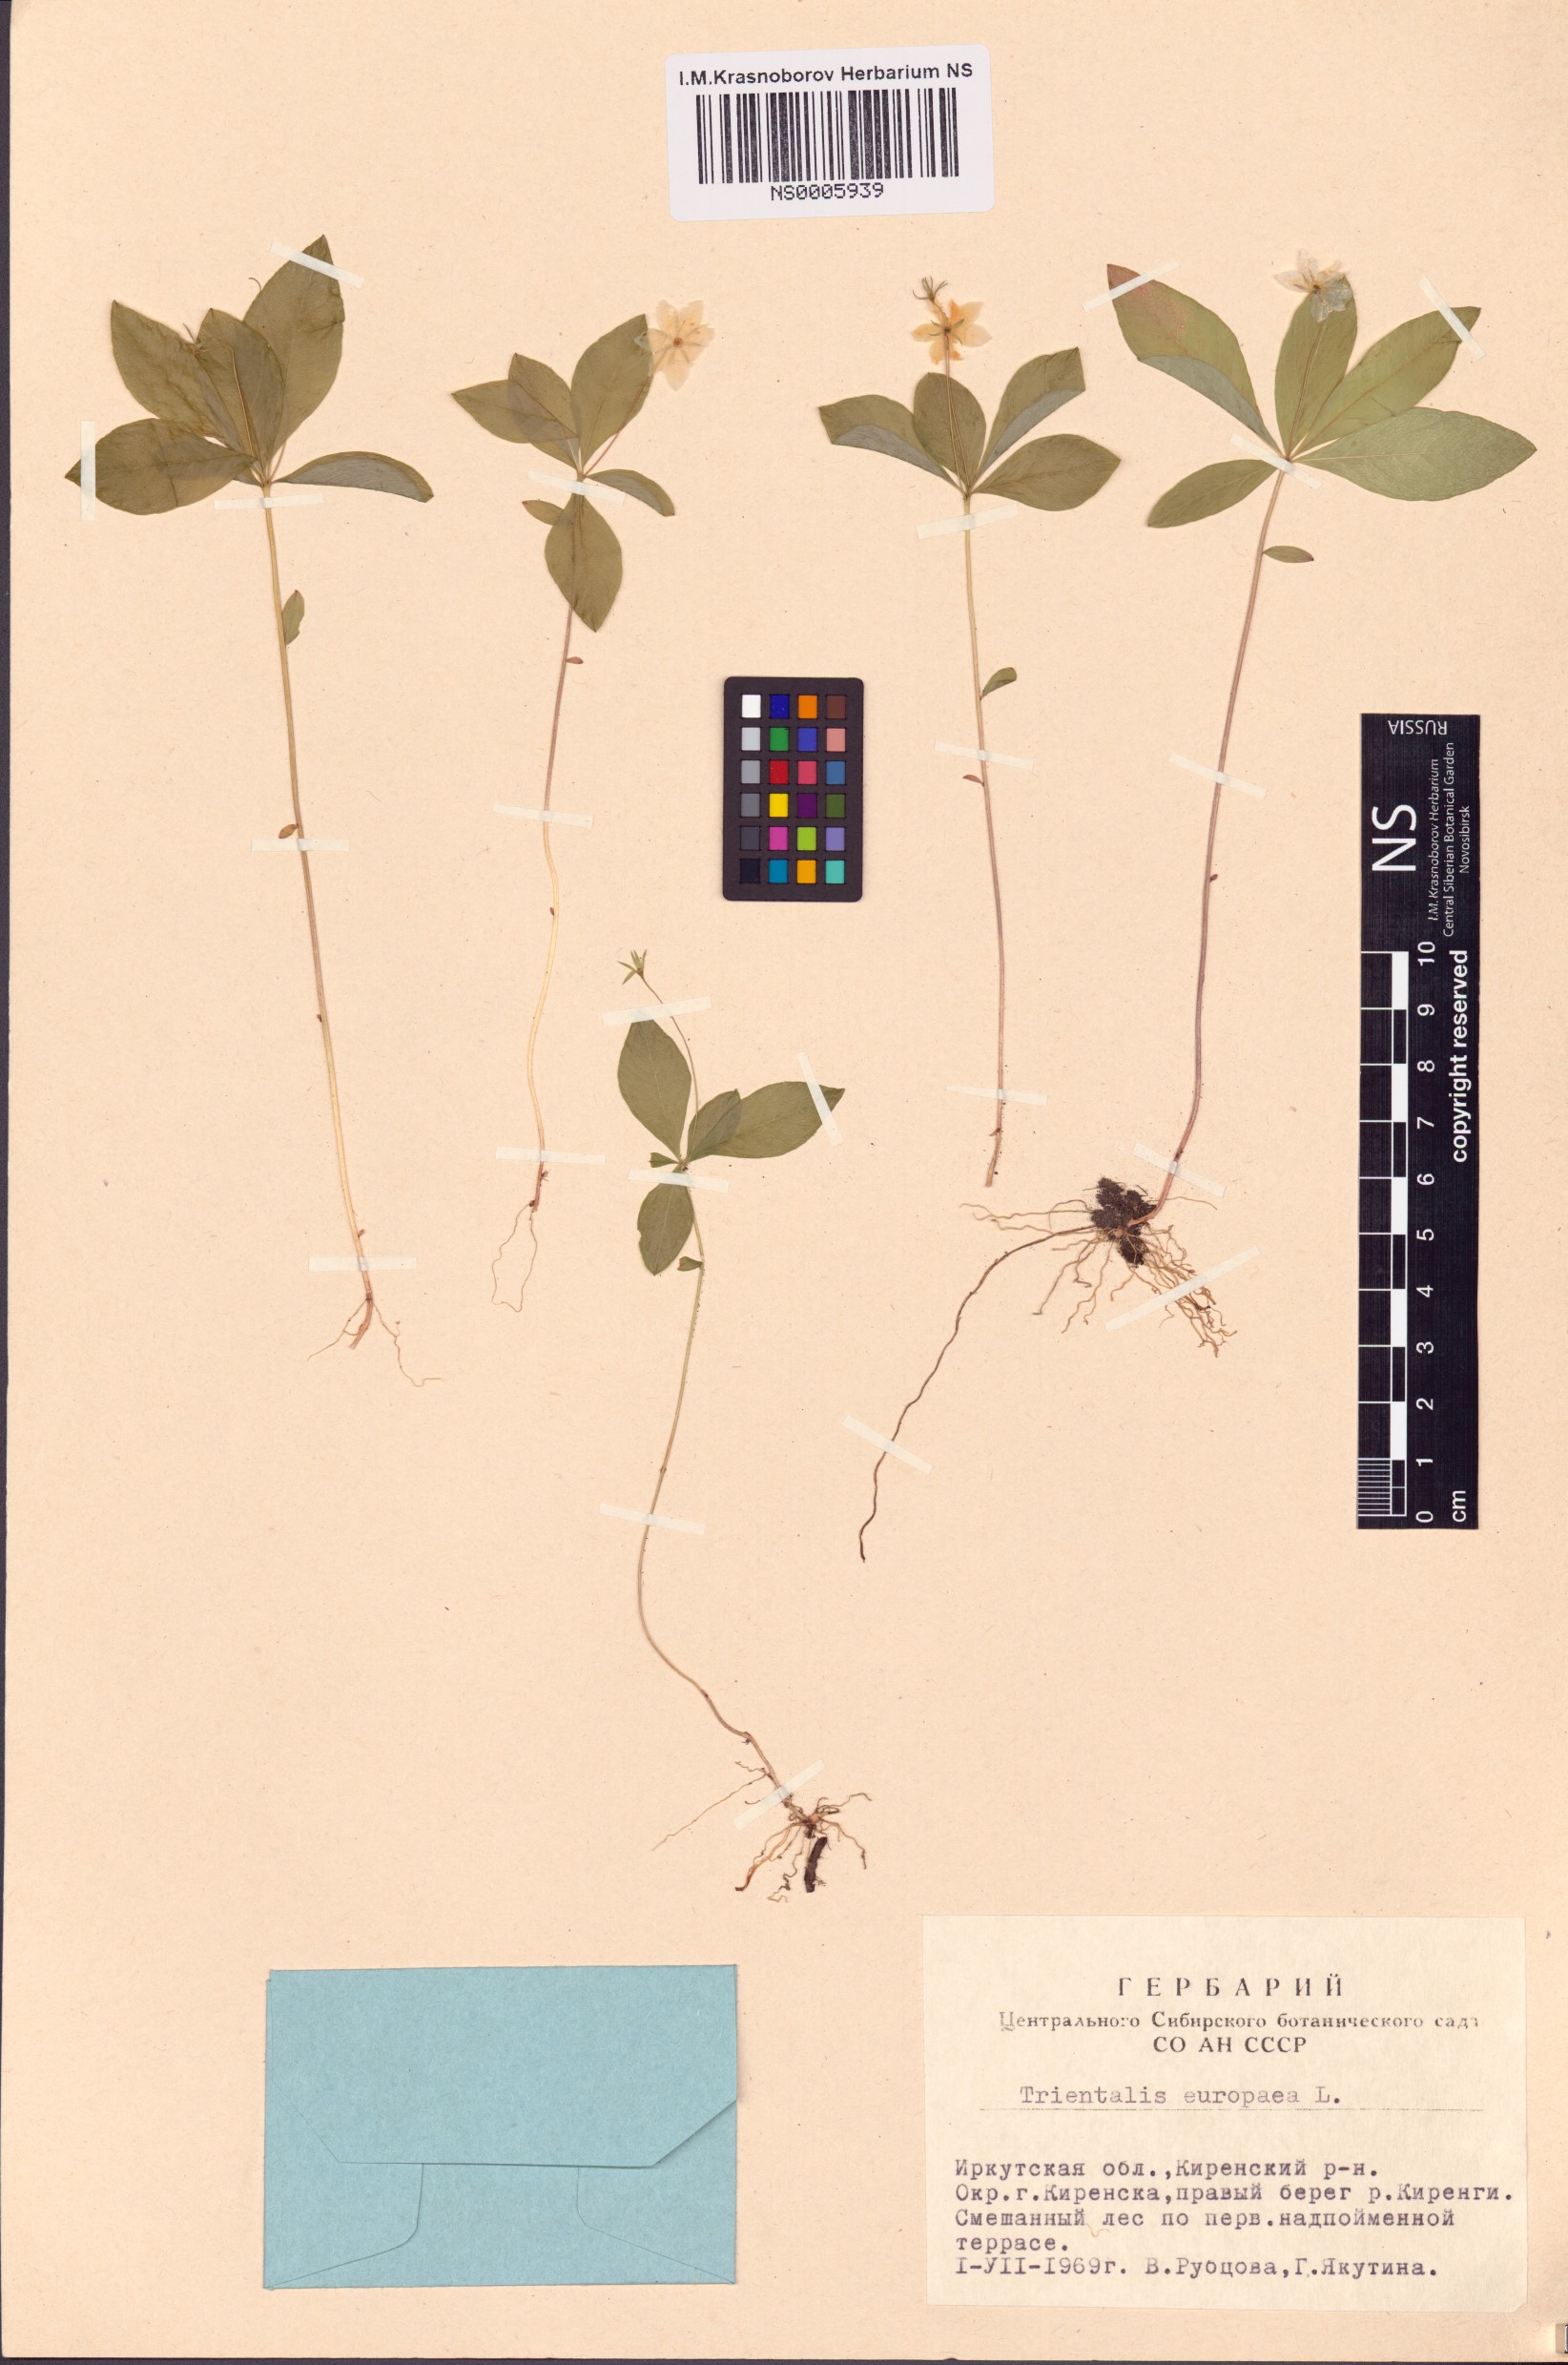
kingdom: Plantae
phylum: Tracheophyta
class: Magnoliopsida
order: Ericales
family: Primulaceae
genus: Lysimachia
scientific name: Lysimachia europaea
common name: Arctic starflower
